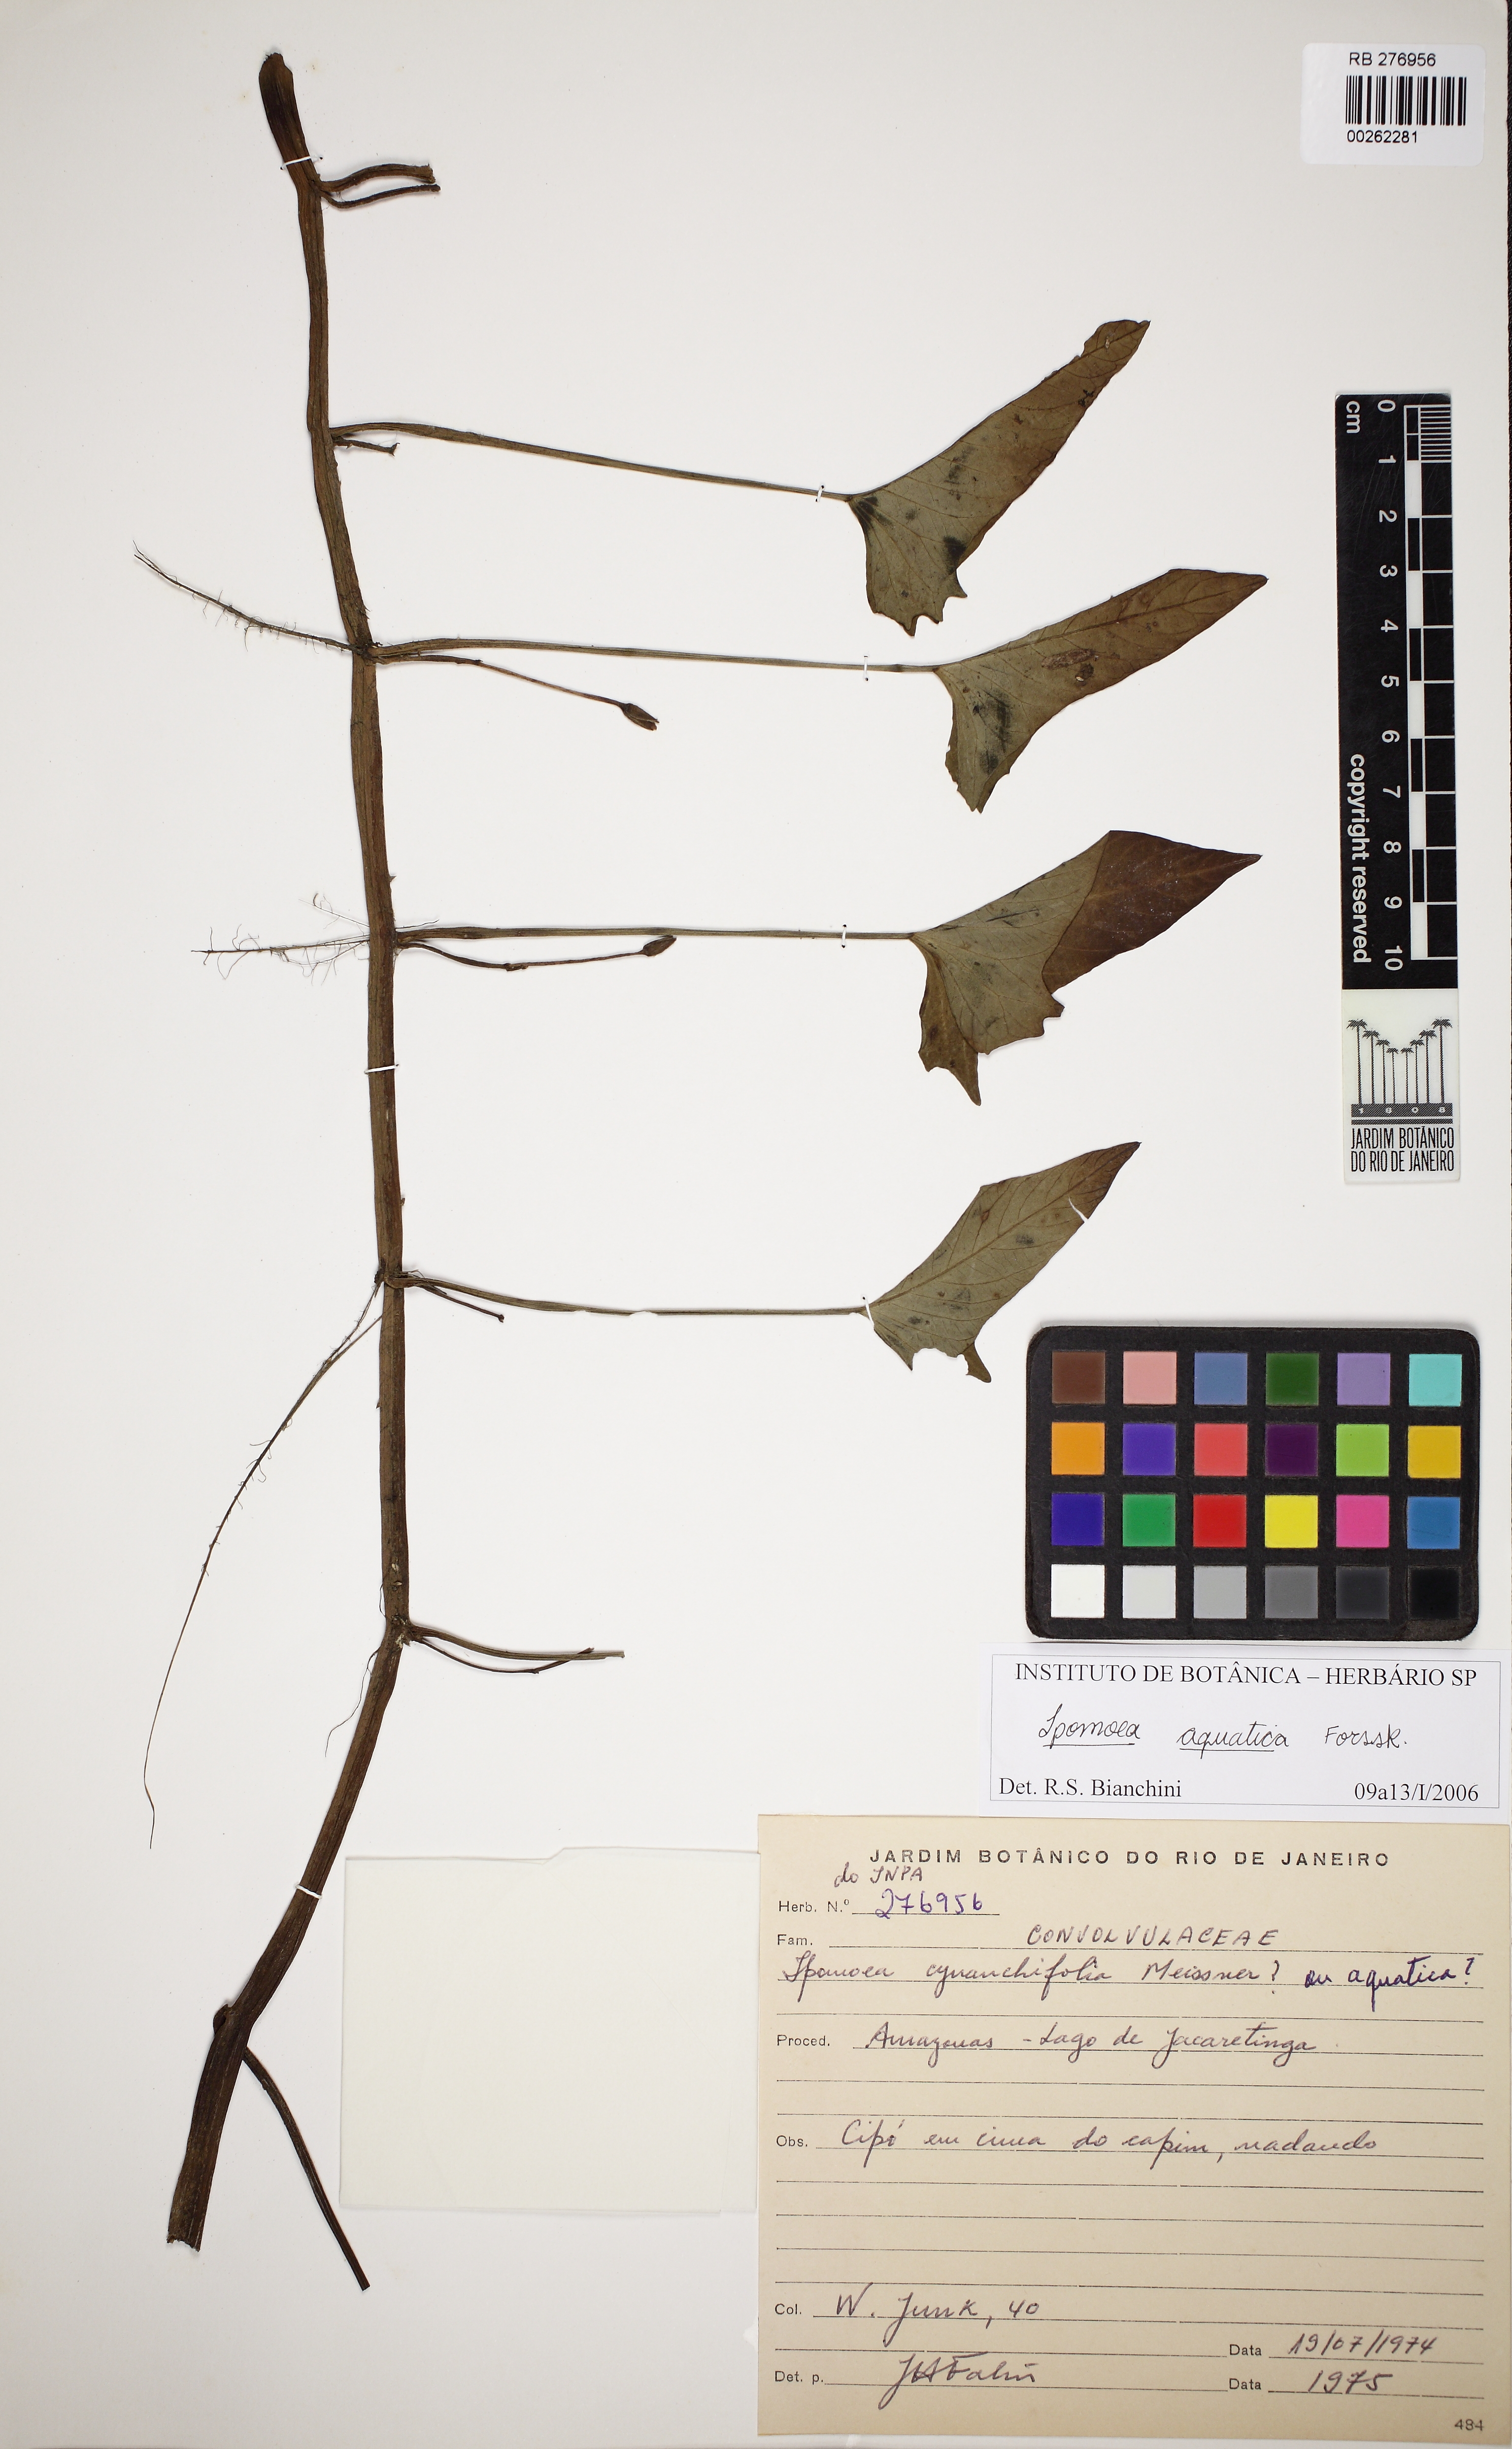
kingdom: Plantae
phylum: Tracheophyta
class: Magnoliopsida
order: Solanales
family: Convolvulaceae
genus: Ipomoea
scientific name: Ipomoea aquatica
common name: Swamp morning-glory
